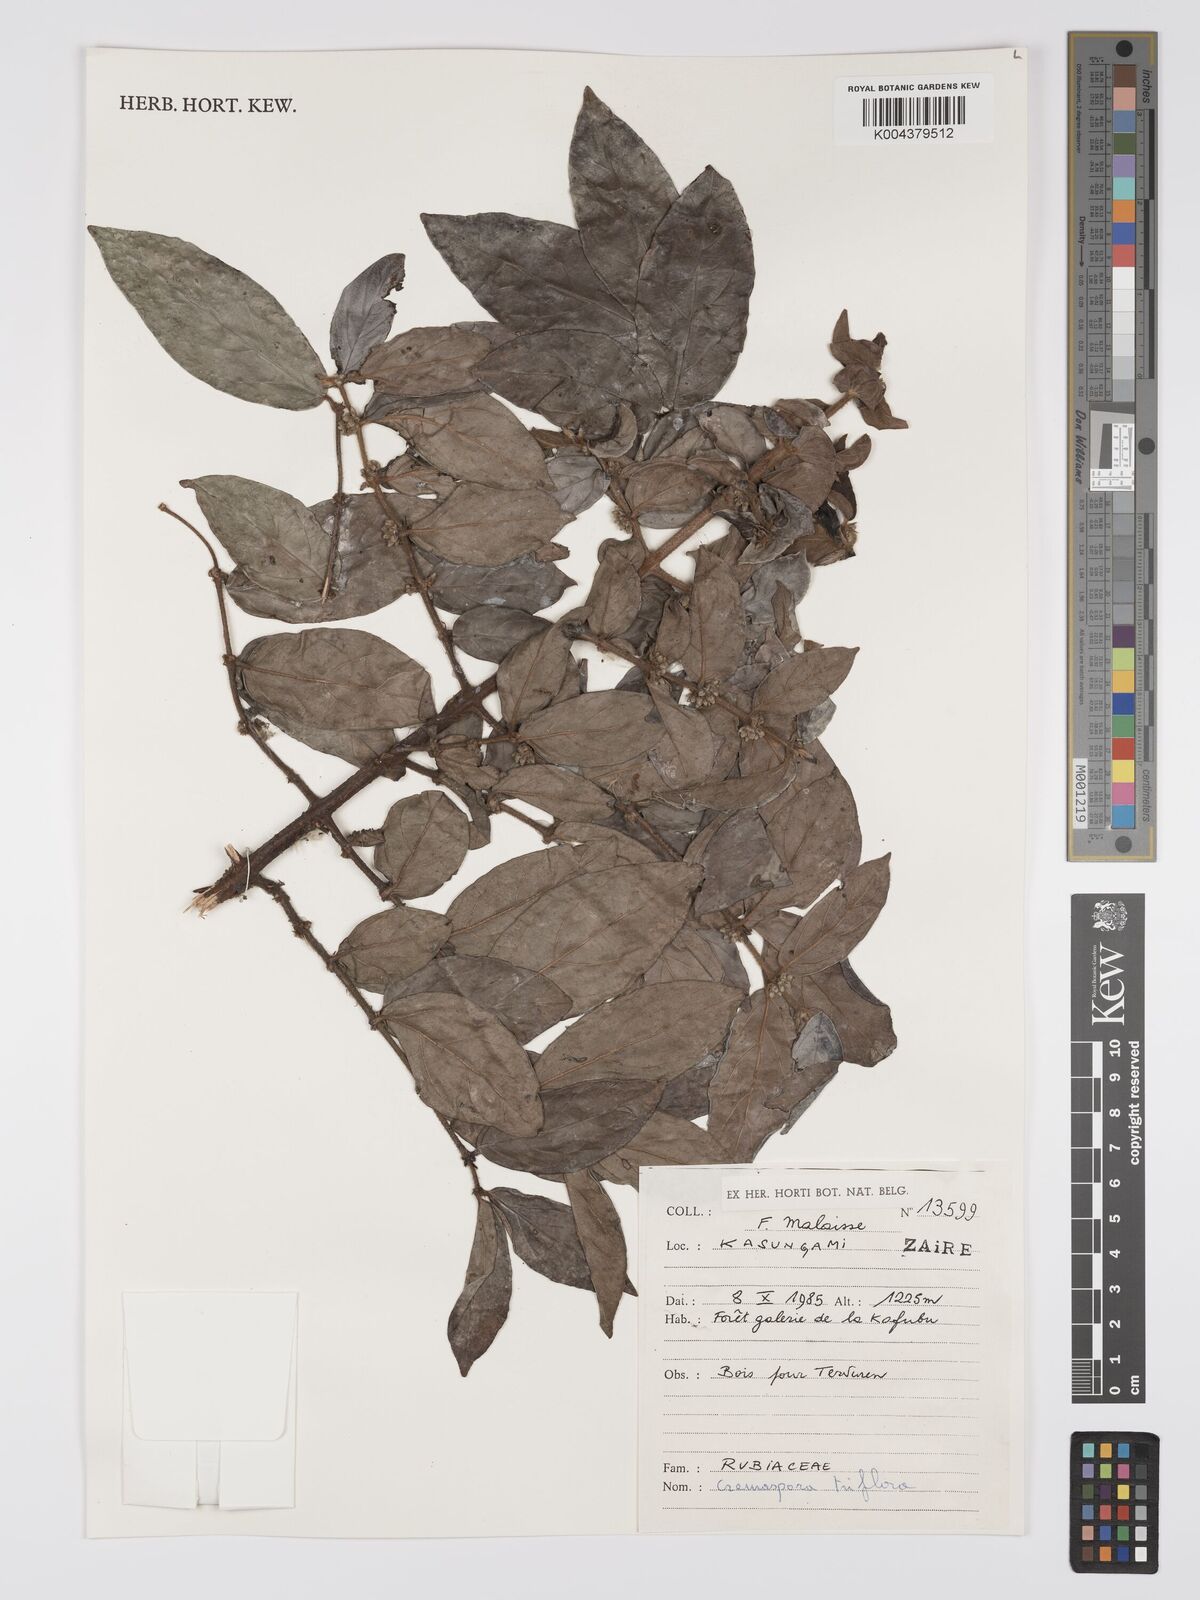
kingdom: Plantae
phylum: Tracheophyta
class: Magnoliopsida
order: Gentianales
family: Rubiaceae
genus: Cremaspora
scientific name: Cremaspora triflora
